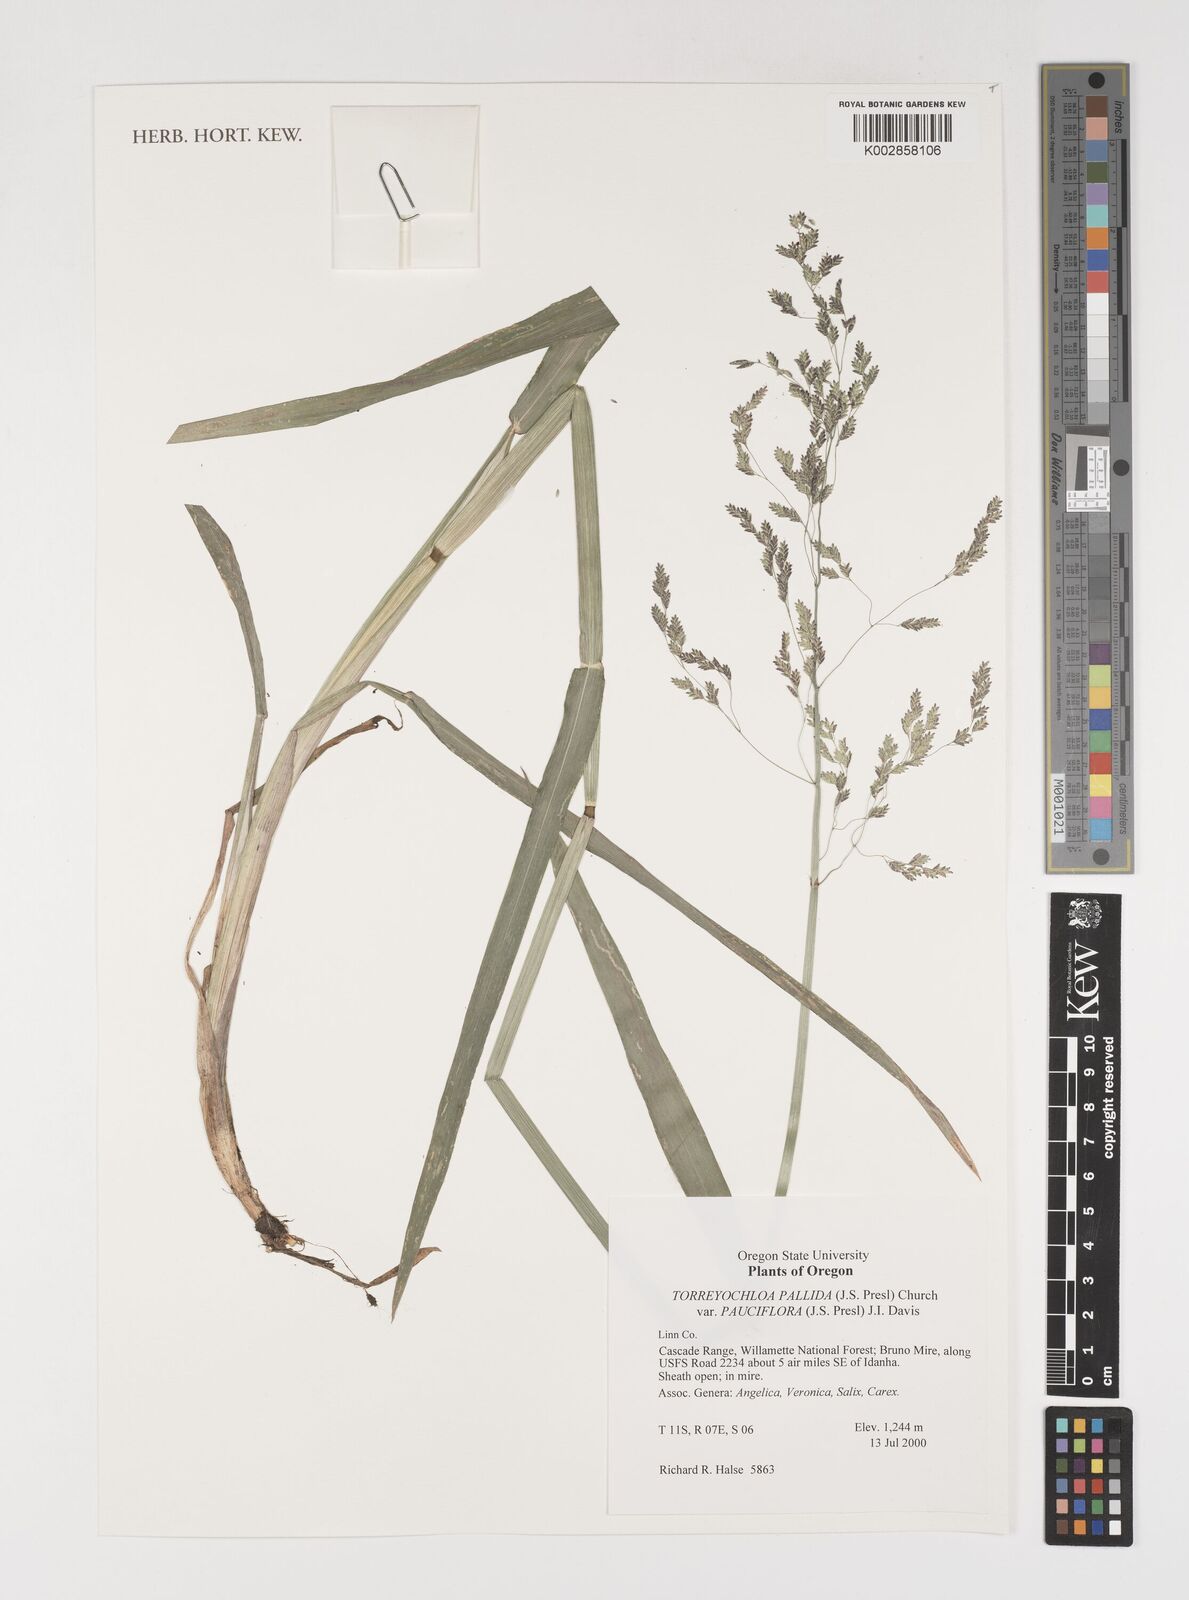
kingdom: Plantae
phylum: Tracheophyta
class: Liliopsida
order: Poales
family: Poaceae
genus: Torreyochloa
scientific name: Torreyochloa pallida
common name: Pale false mannagrass
